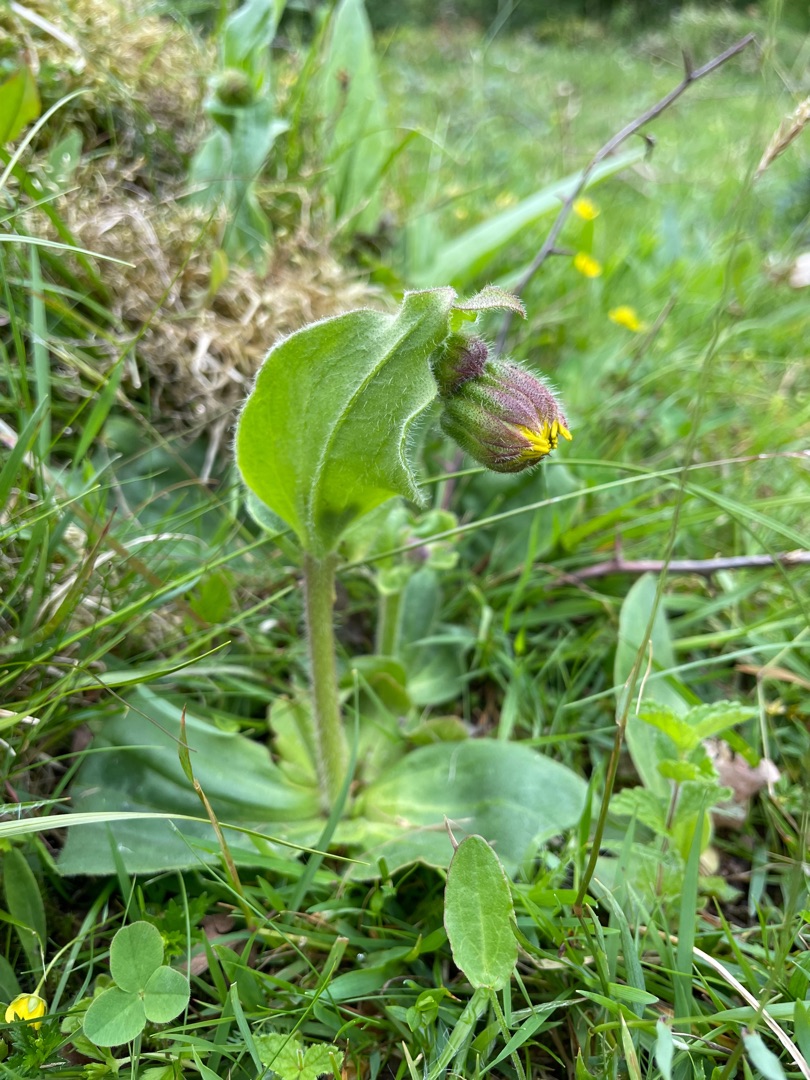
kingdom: Plantae
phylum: Tracheophyta
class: Magnoliopsida
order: Asterales
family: Asteraceae
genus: Arnica
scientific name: Arnica montana
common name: Guldblomme
